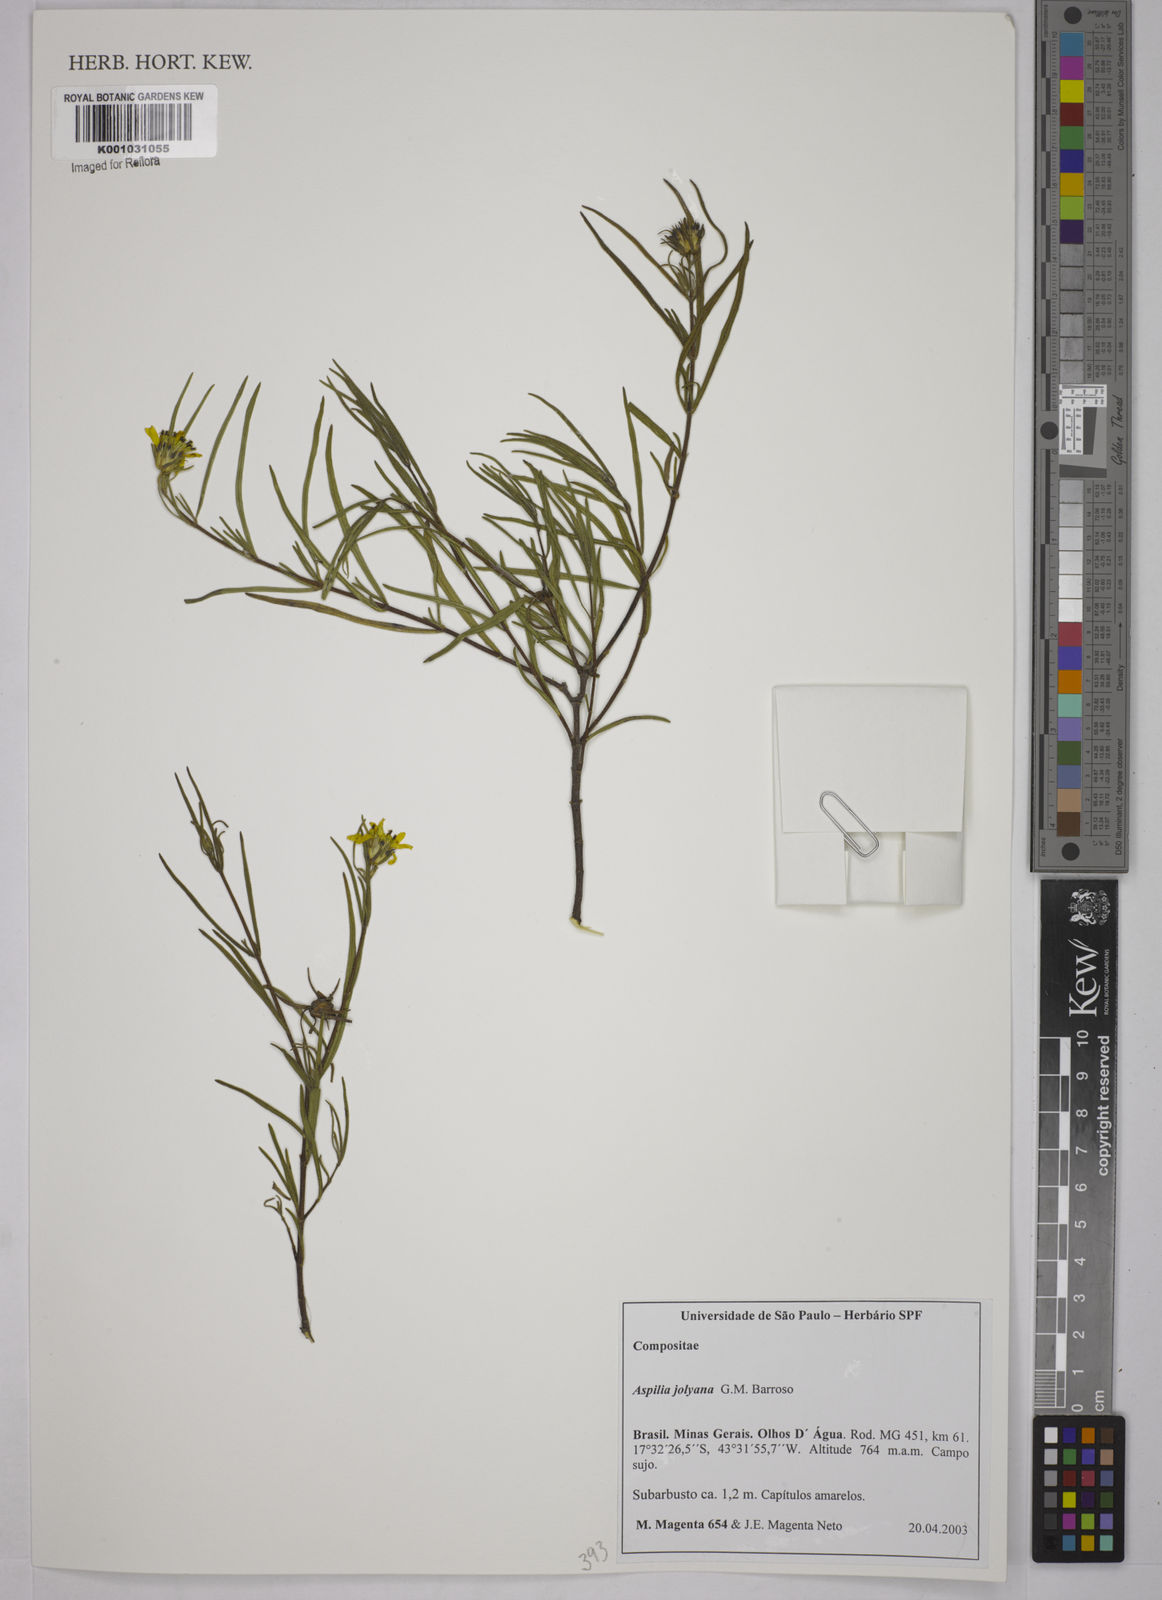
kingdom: Plantae
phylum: Tracheophyta
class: Magnoliopsida
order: Asterales
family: Asteraceae
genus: Aspilia
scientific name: Aspilia jolyana
